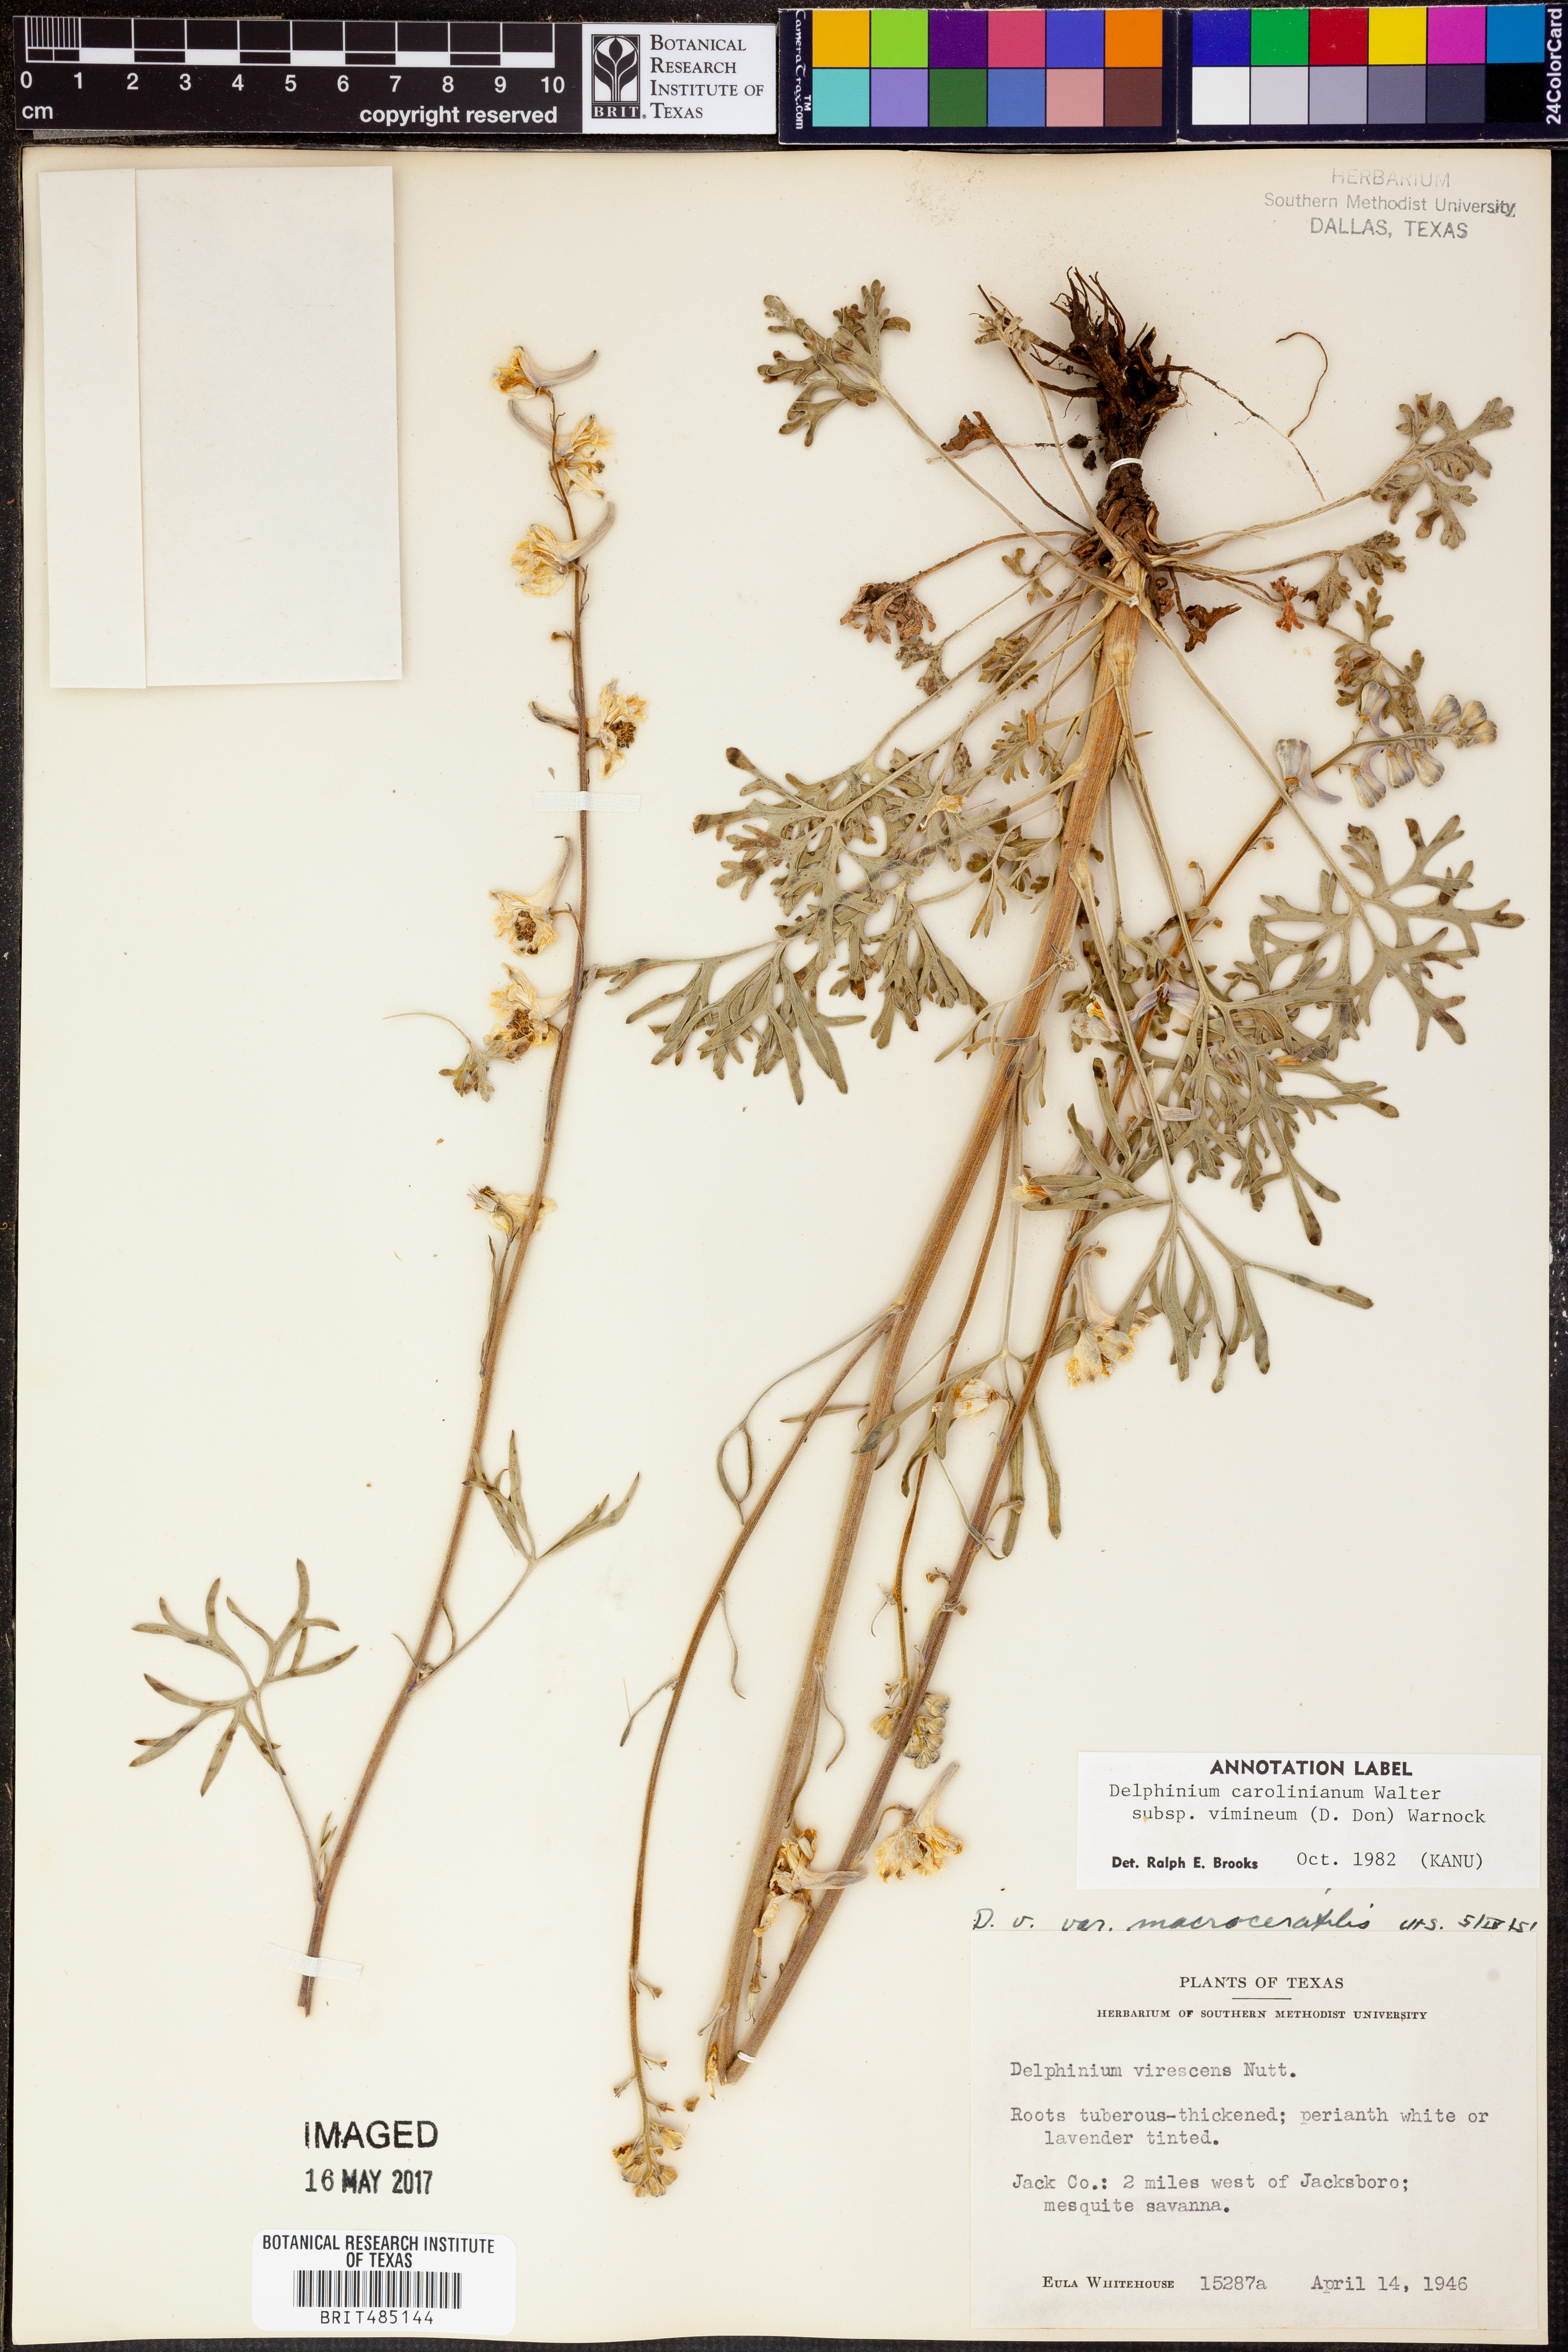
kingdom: Plantae
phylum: Tracheophyta
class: Magnoliopsida
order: Ranunculales
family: Ranunculaceae
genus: Delphinium
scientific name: Delphinium carolinianum
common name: Carolina larkspur
